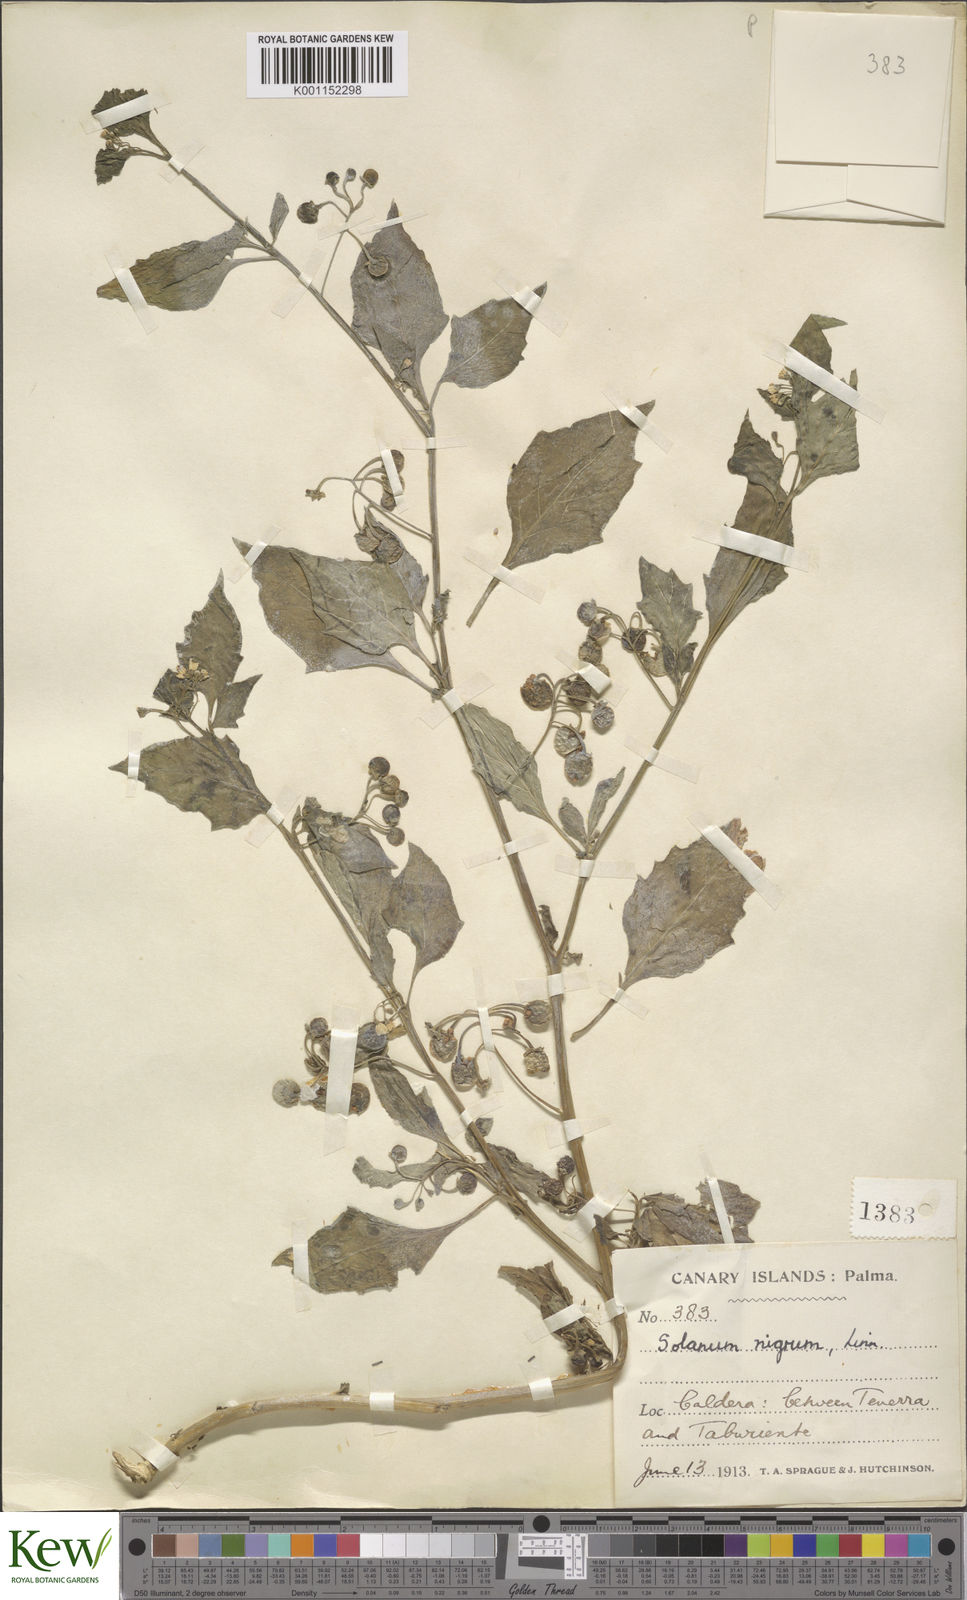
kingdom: Plantae
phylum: Tracheophyta
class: Magnoliopsida
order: Solanales
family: Solanaceae
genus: Solanum
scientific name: Solanum nigrum
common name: Black nightshade
